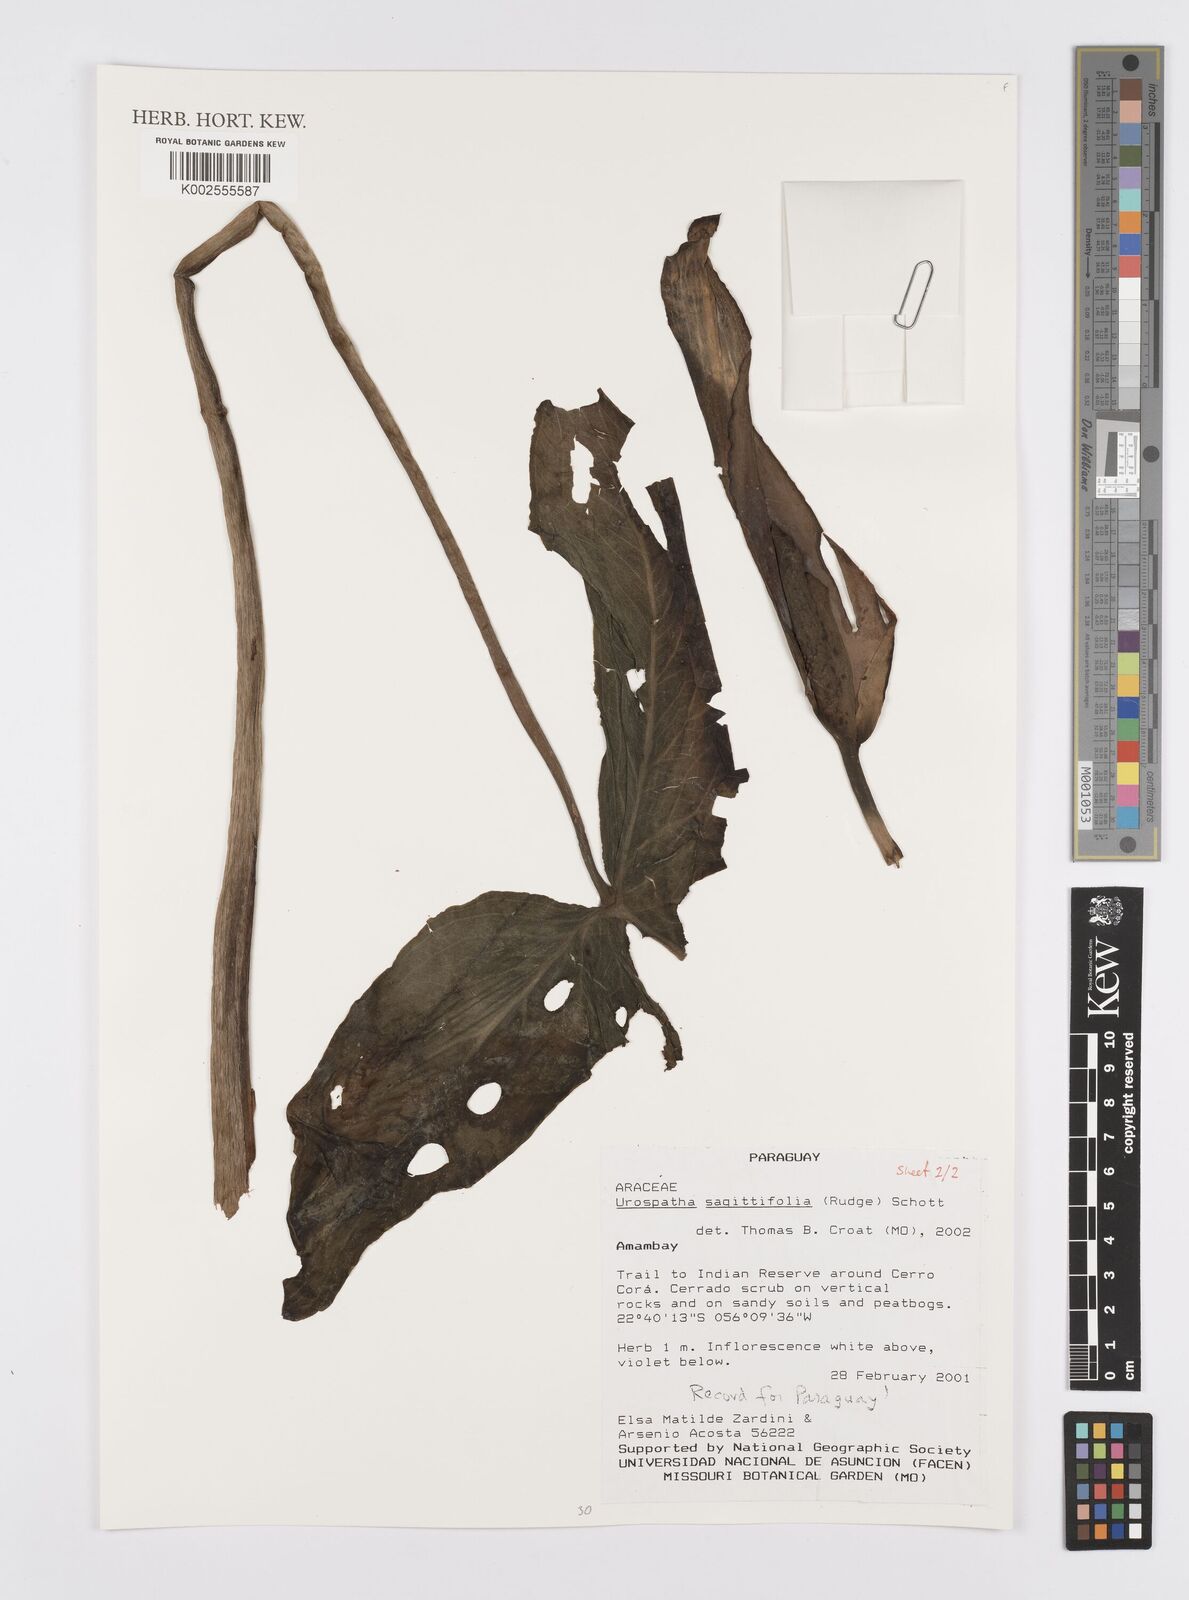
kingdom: Plantae
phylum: Tracheophyta
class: Liliopsida
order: Alismatales
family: Araceae
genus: Urospatha
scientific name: Urospatha sagittifolia
